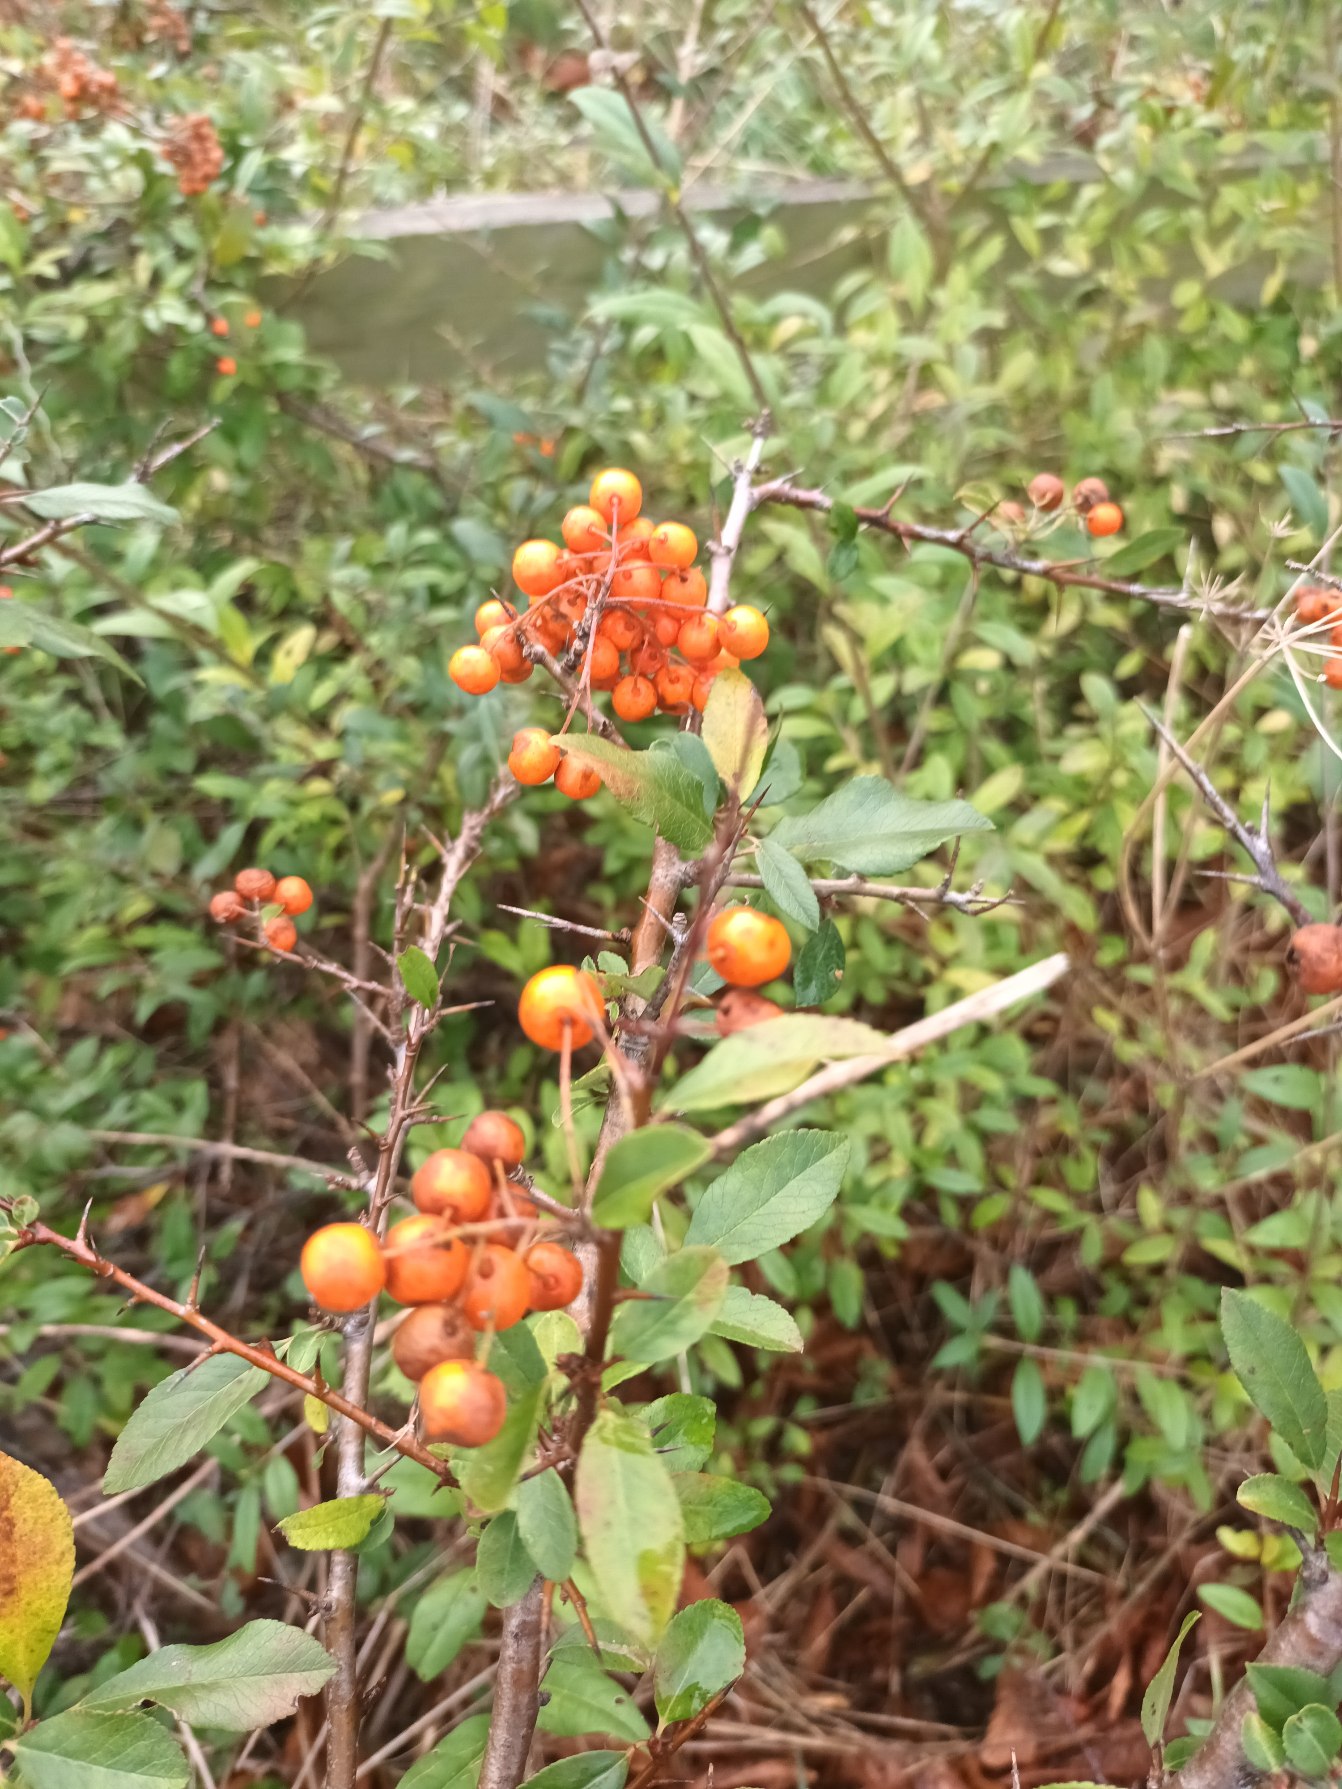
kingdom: Plantae
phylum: Tracheophyta
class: Magnoliopsida
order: Rosales
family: Rosaceae
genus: Pyracantha
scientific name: Pyracantha crenulata
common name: Orangegul ildtorn
